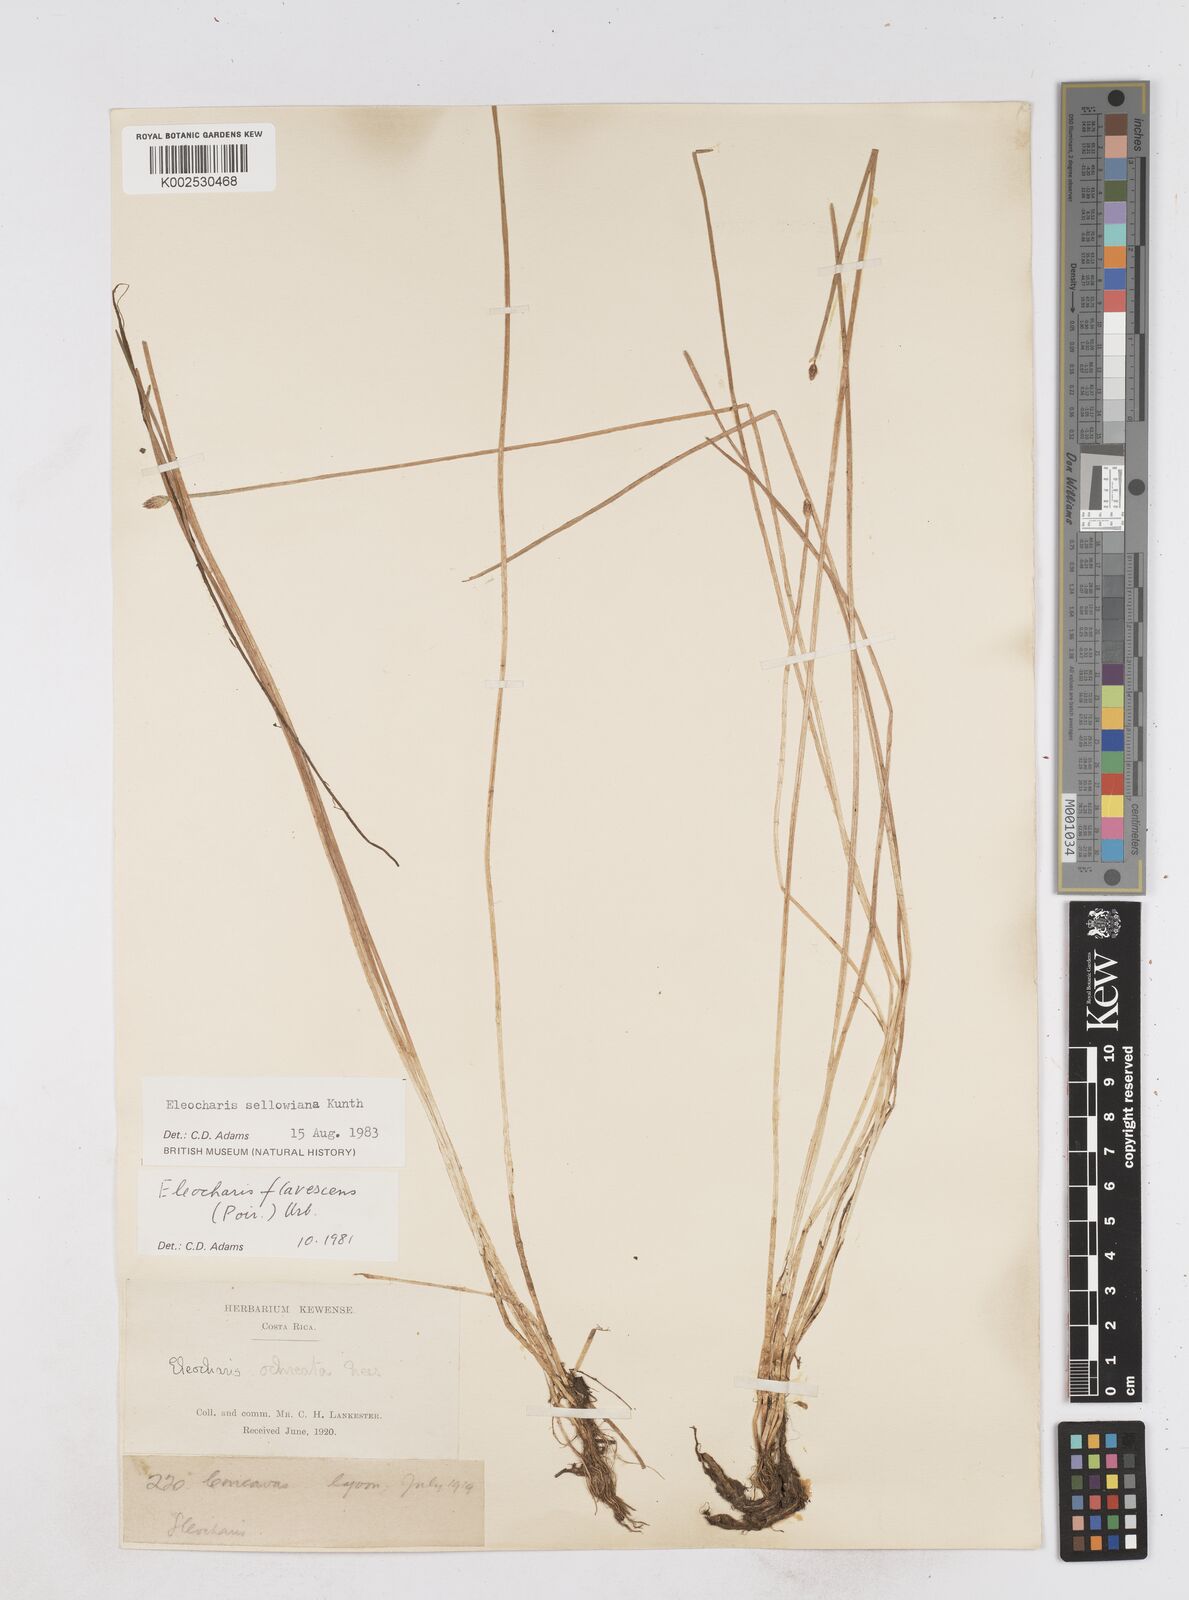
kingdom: Plantae
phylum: Tracheophyta
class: Liliopsida
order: Poales
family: Cyperaceae
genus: Eleocharis
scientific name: Eleocharis sellowiana
